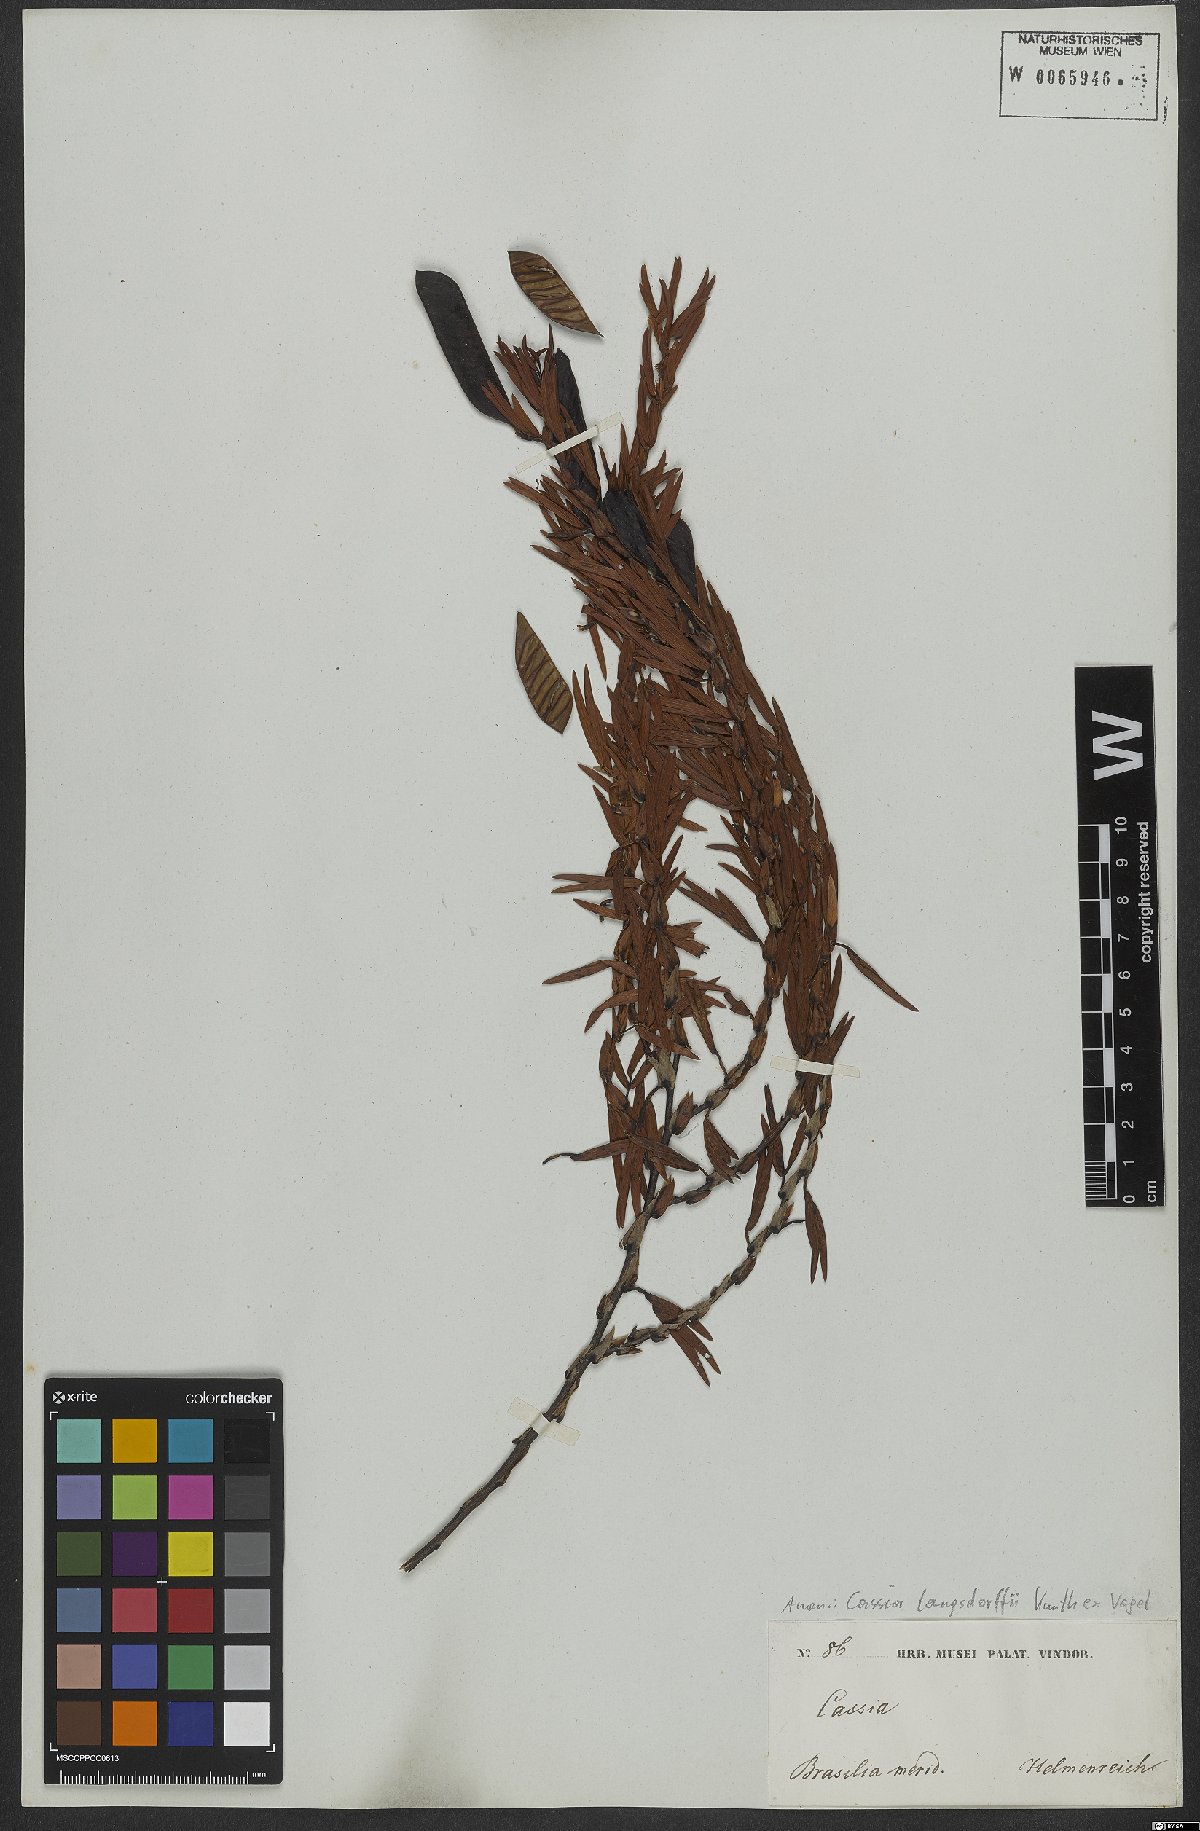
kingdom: Plantae
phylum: Tracheophyta
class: Magnoliopsida
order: Fabales
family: Fabaceae
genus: Chamaecrista
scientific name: Chamaecrista langsdorffii
